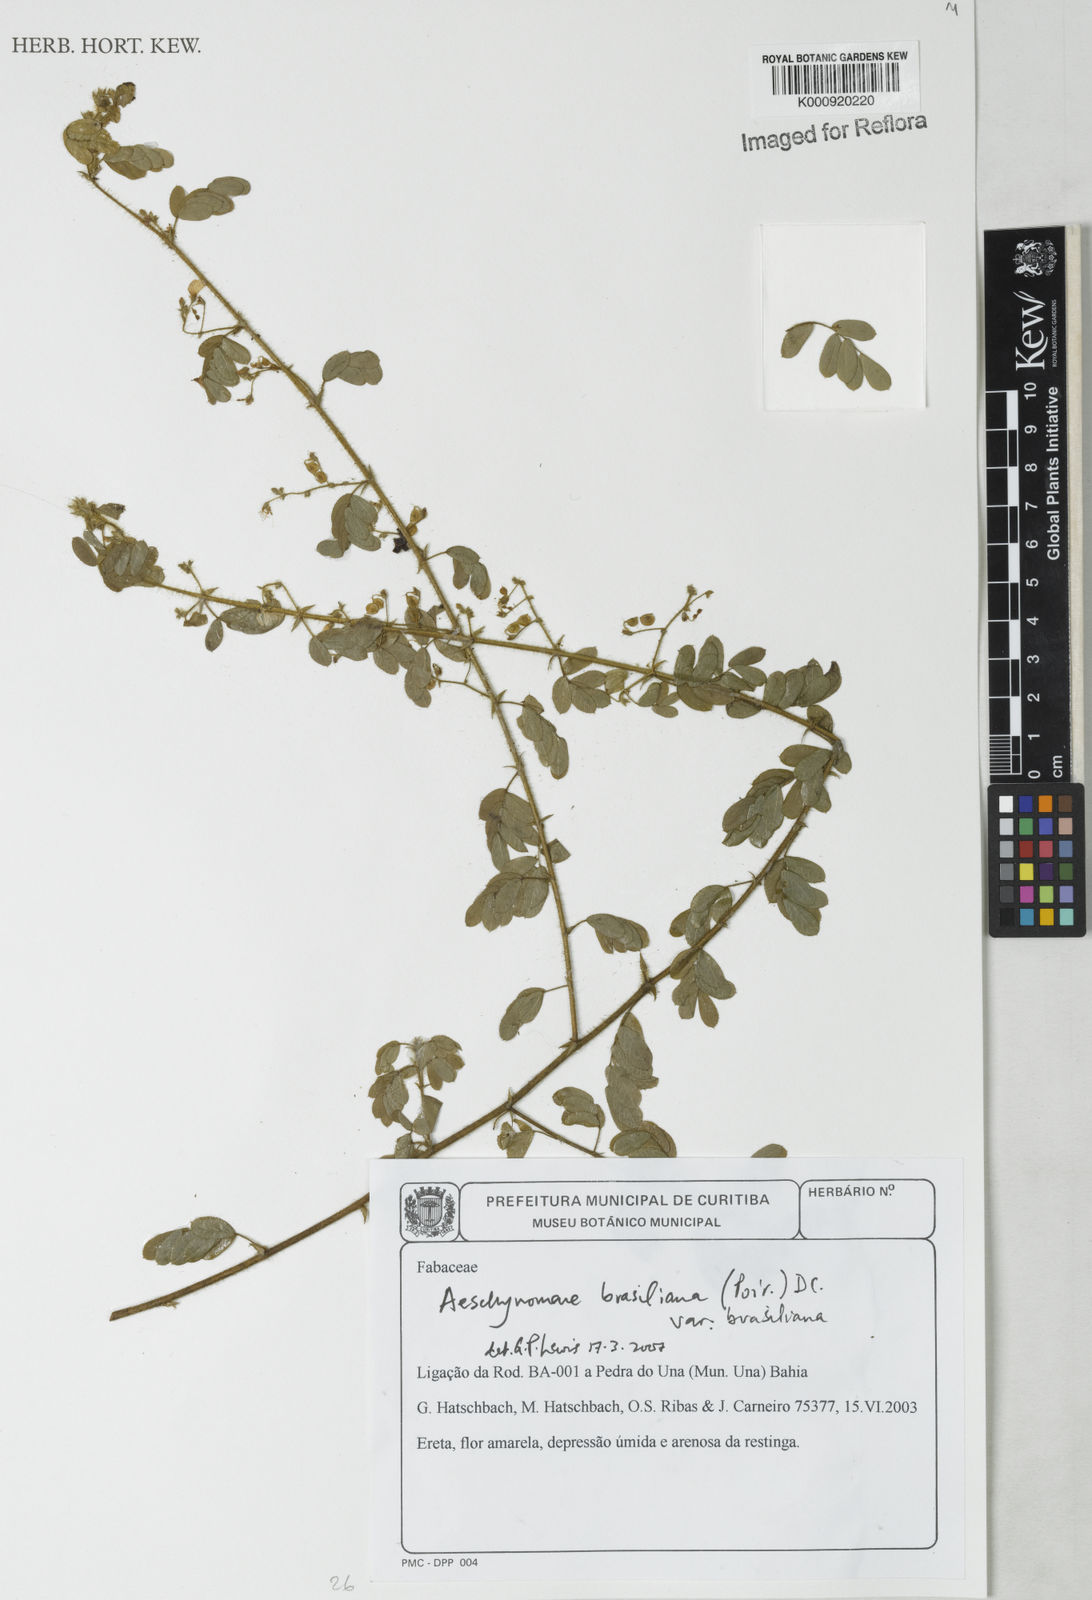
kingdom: Plantae
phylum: Tracheophyta
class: Magnoliopsida
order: Fabales
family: Fabaceae
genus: Ctenodon
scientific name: Ctenodon brasilianus
